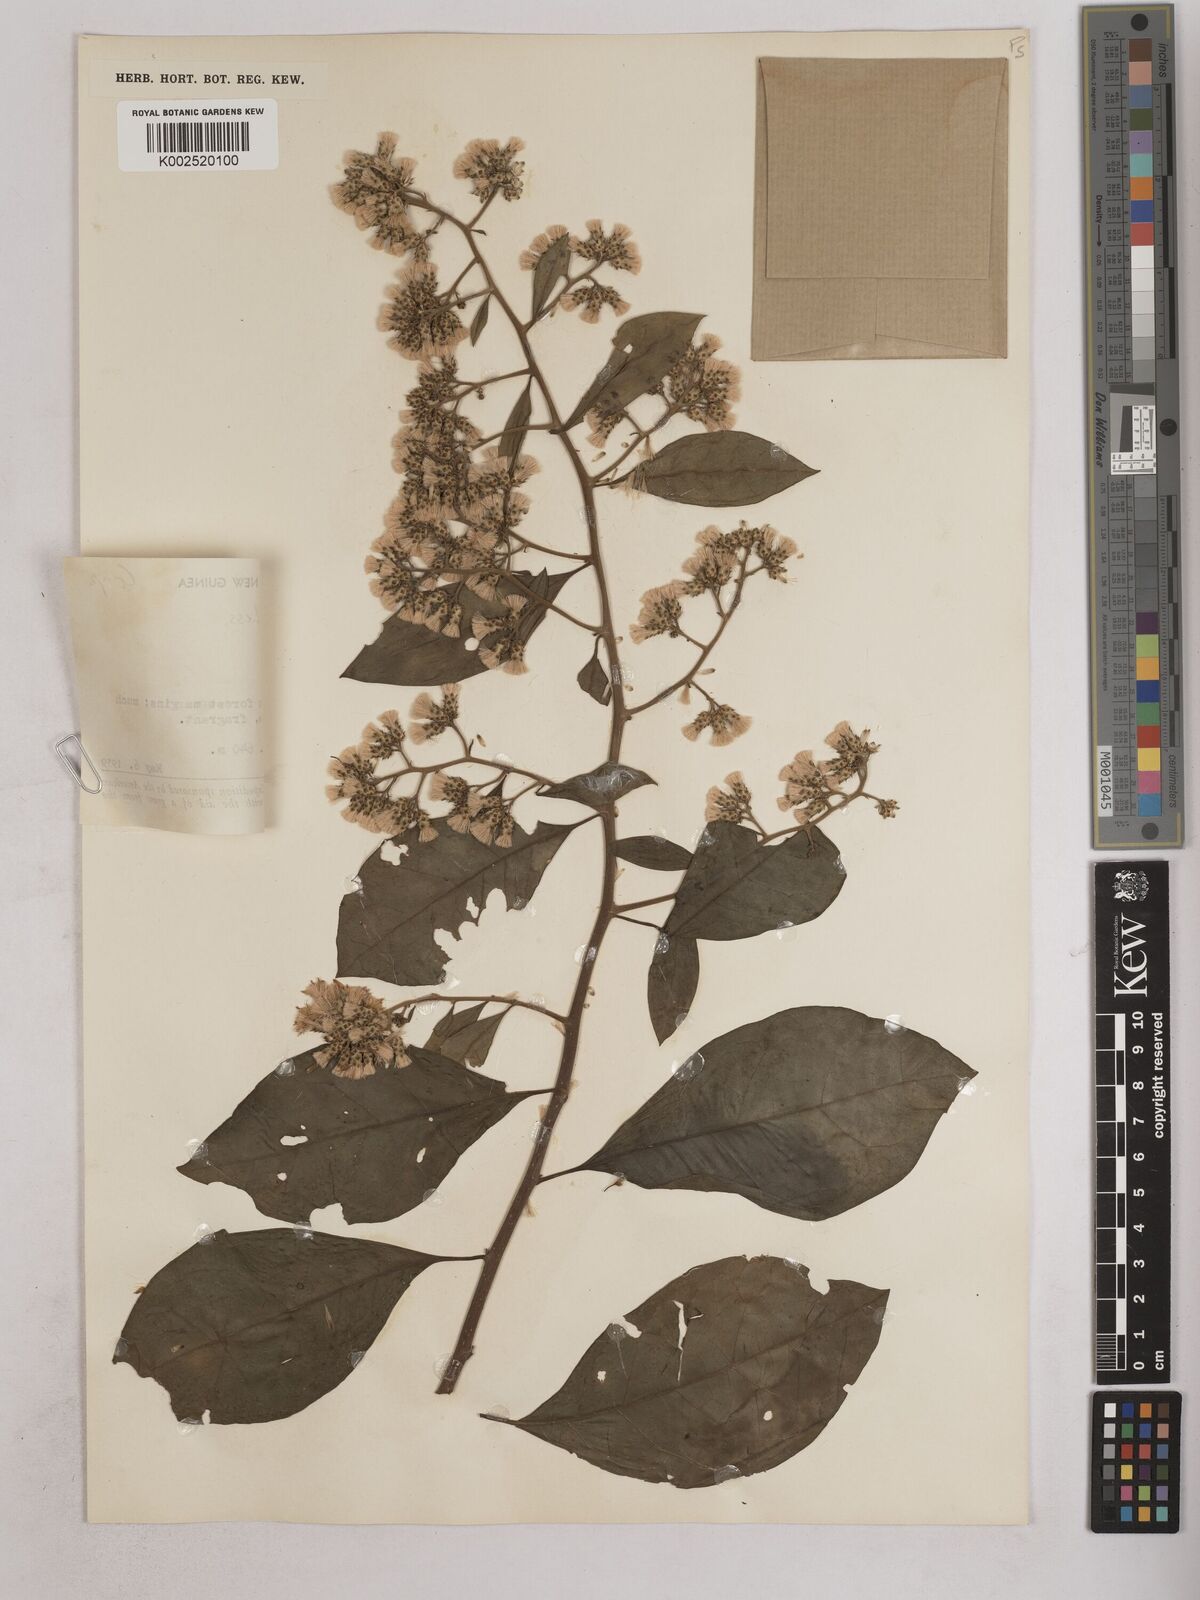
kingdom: Plantae
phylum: Tracheophyta
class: Magnoliopsida
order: Asterales
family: Asteraceae
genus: Decaneuropsis
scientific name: Decaneuropsis obovata
